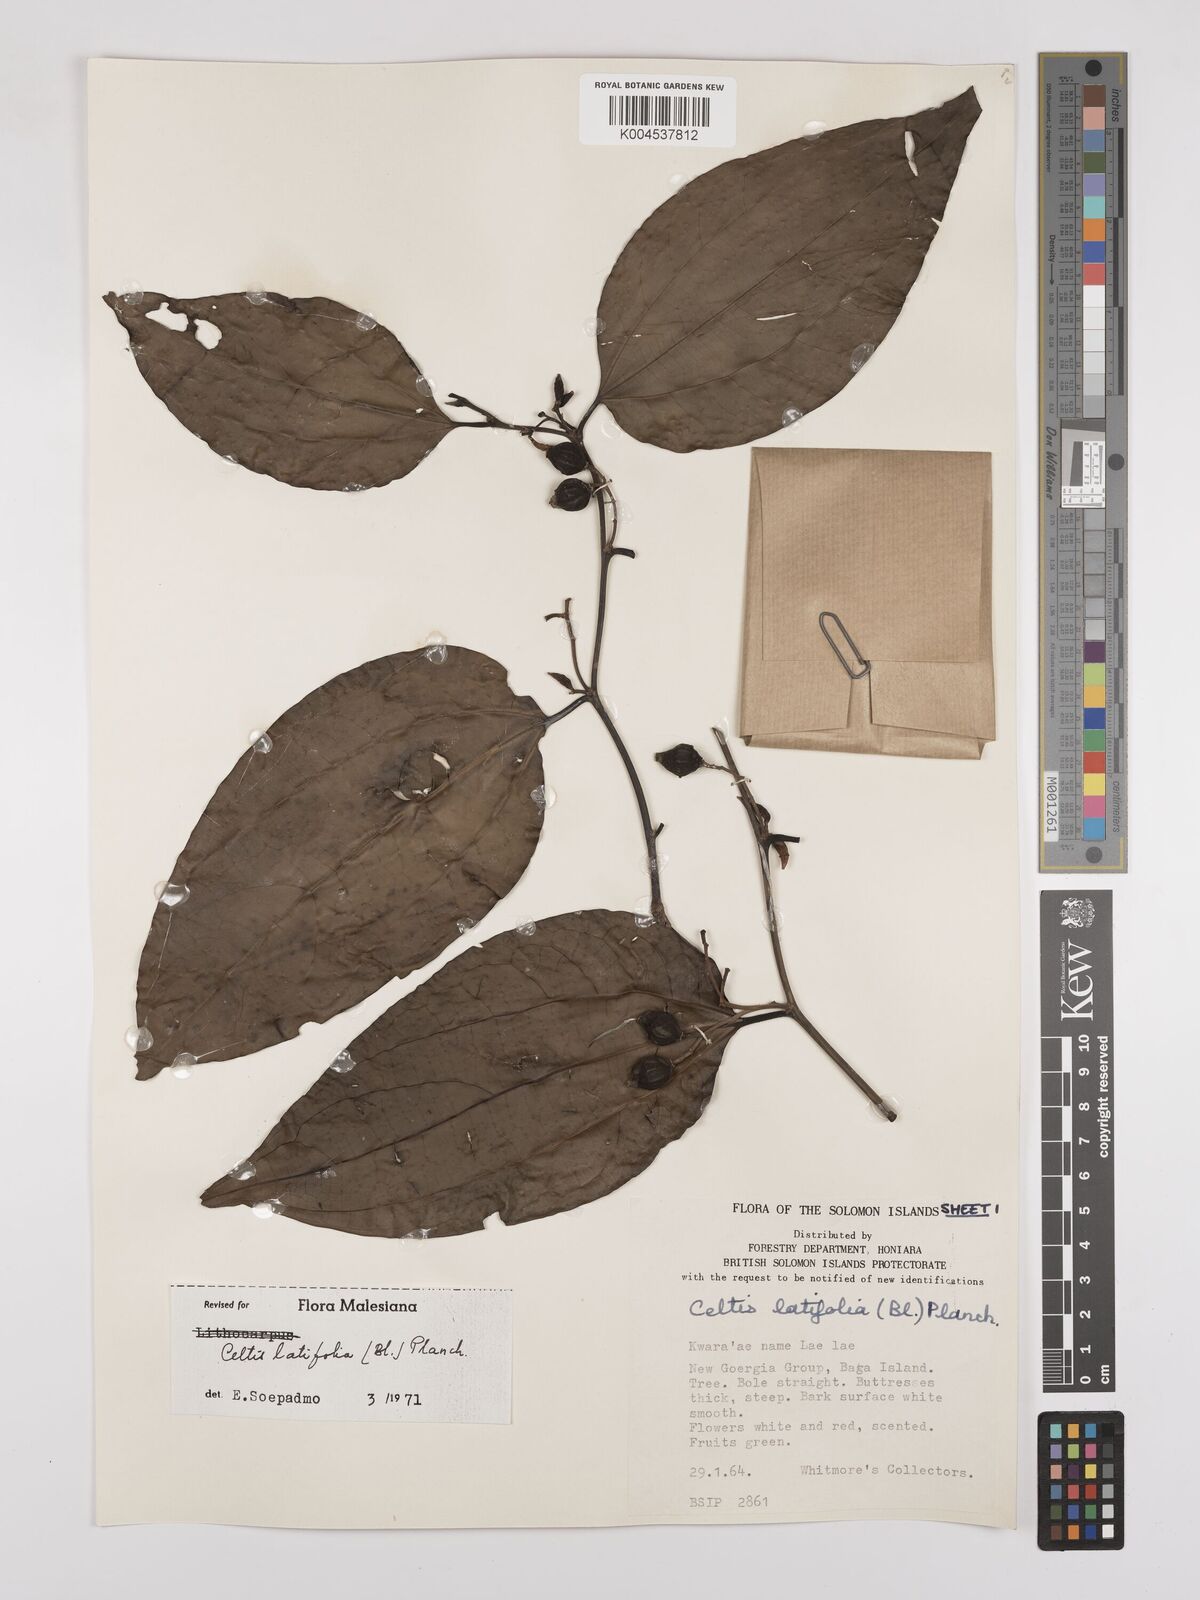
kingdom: Plantae
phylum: Tracheophyta
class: Magnoliopsida
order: Rosales
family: Cannabaceae
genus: Celtis
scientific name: Celtis latifolia
